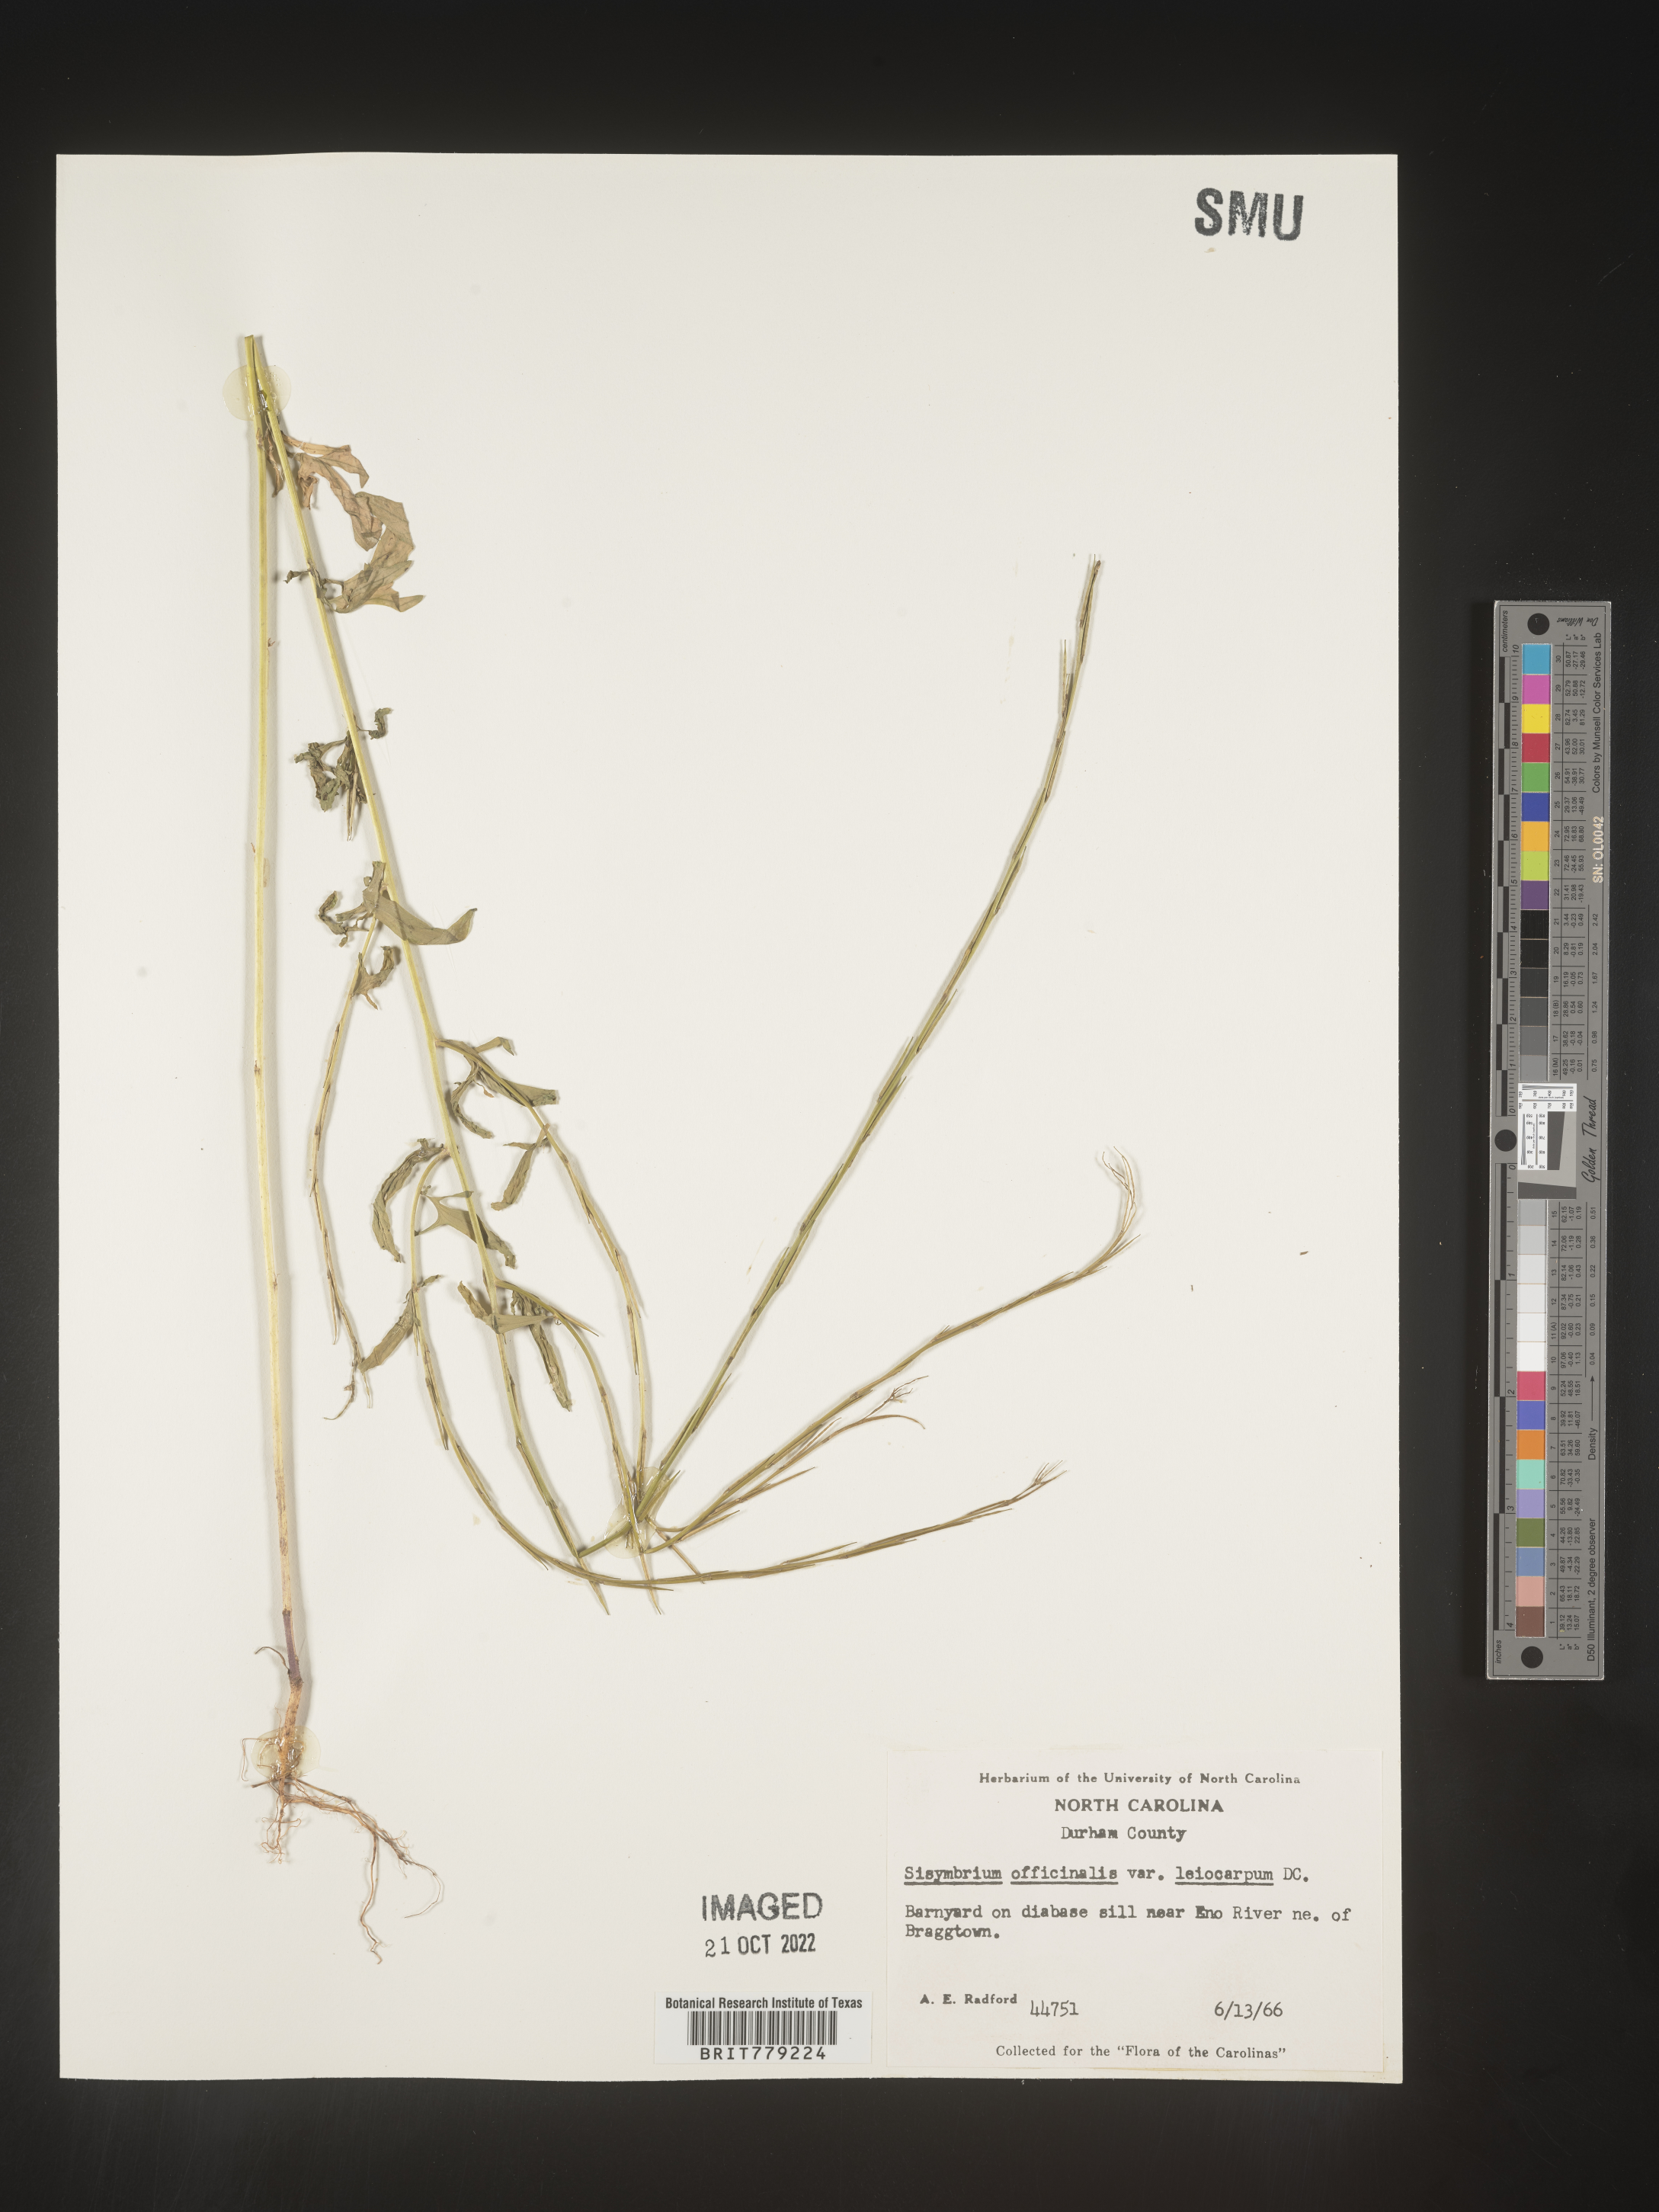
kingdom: Plantae
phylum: Tracheophyta
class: Magnoliopsida
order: Brassicales
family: Brassicaceae
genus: Sisymbrium
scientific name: Sisymbrium officinale
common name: Hedge mustard
